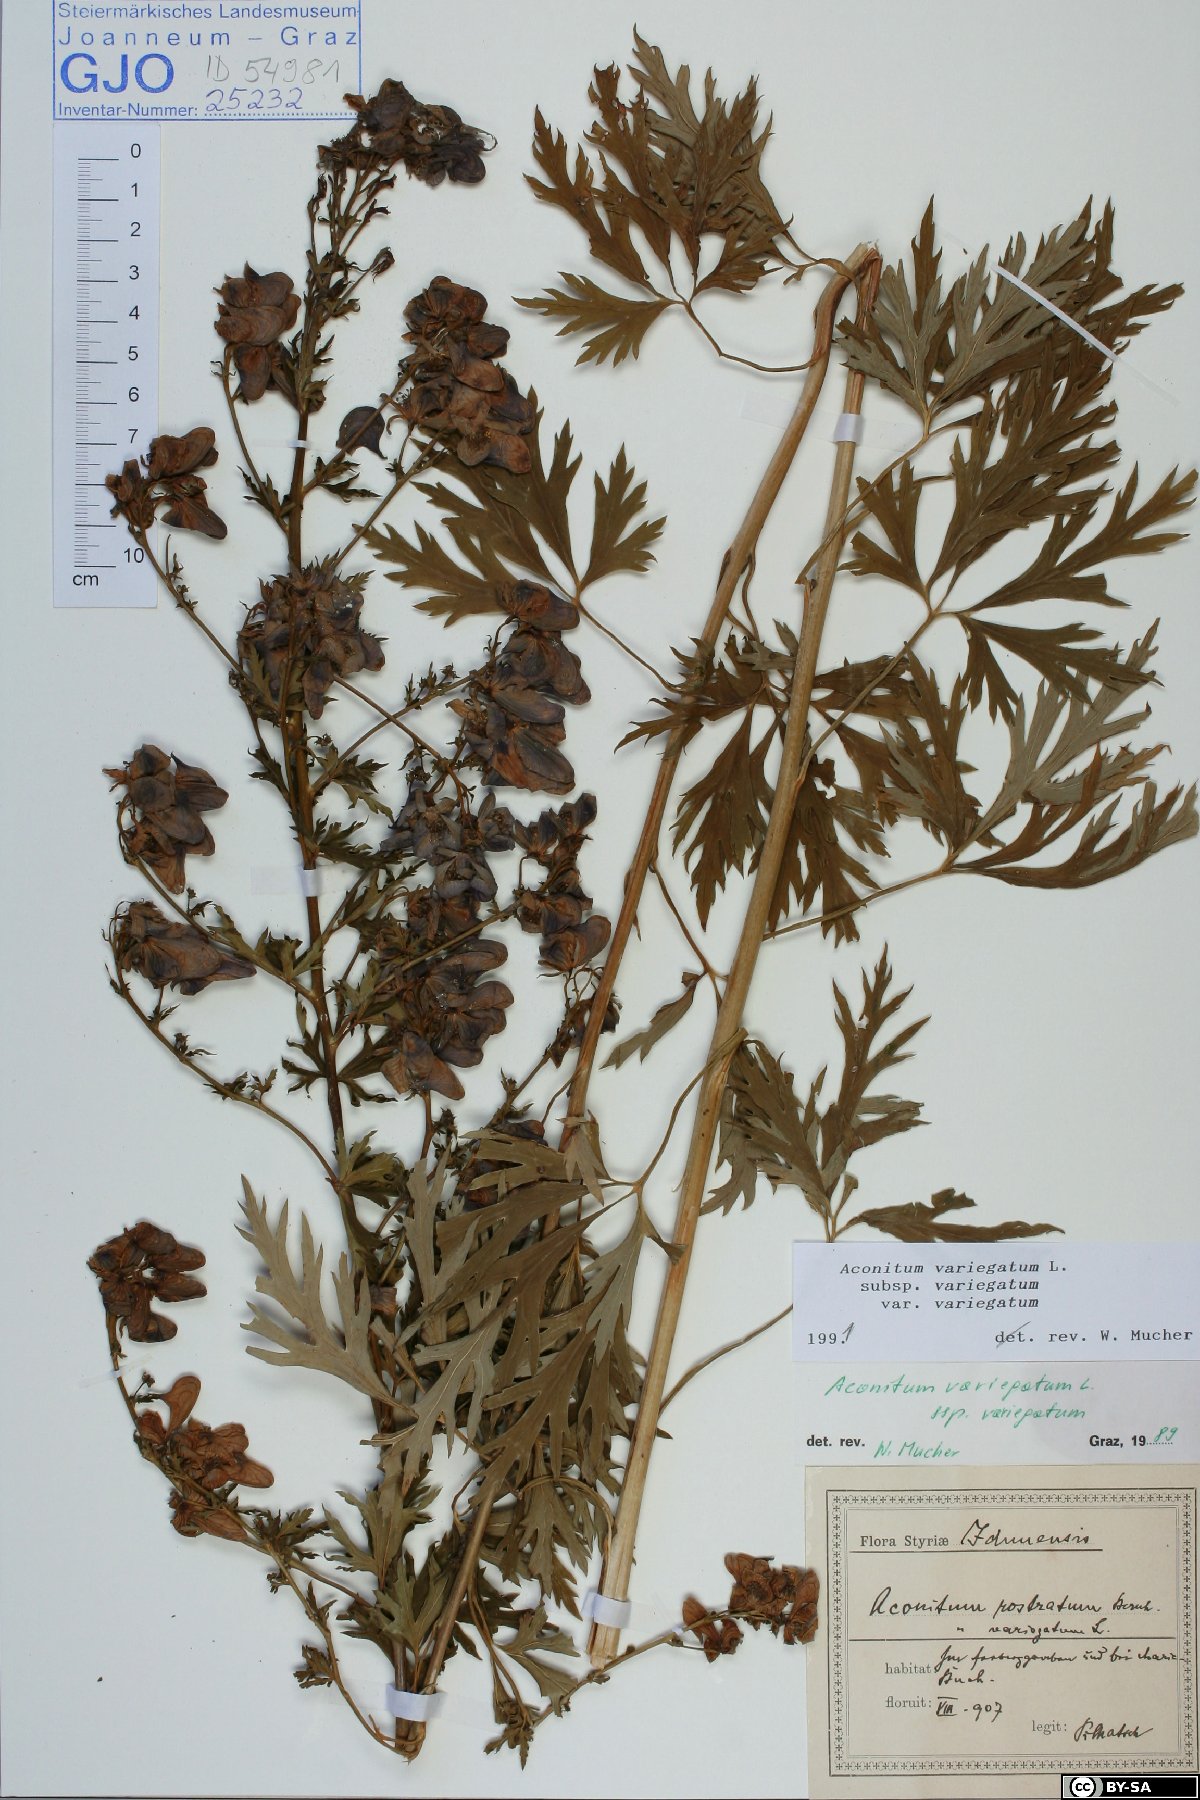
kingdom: Plantae
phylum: Tracheophyta
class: Magnoliopsida
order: Ranunculales
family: Ranunculaceae
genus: Aconitum
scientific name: Aconitum variegatum
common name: Manchurian monkshood
